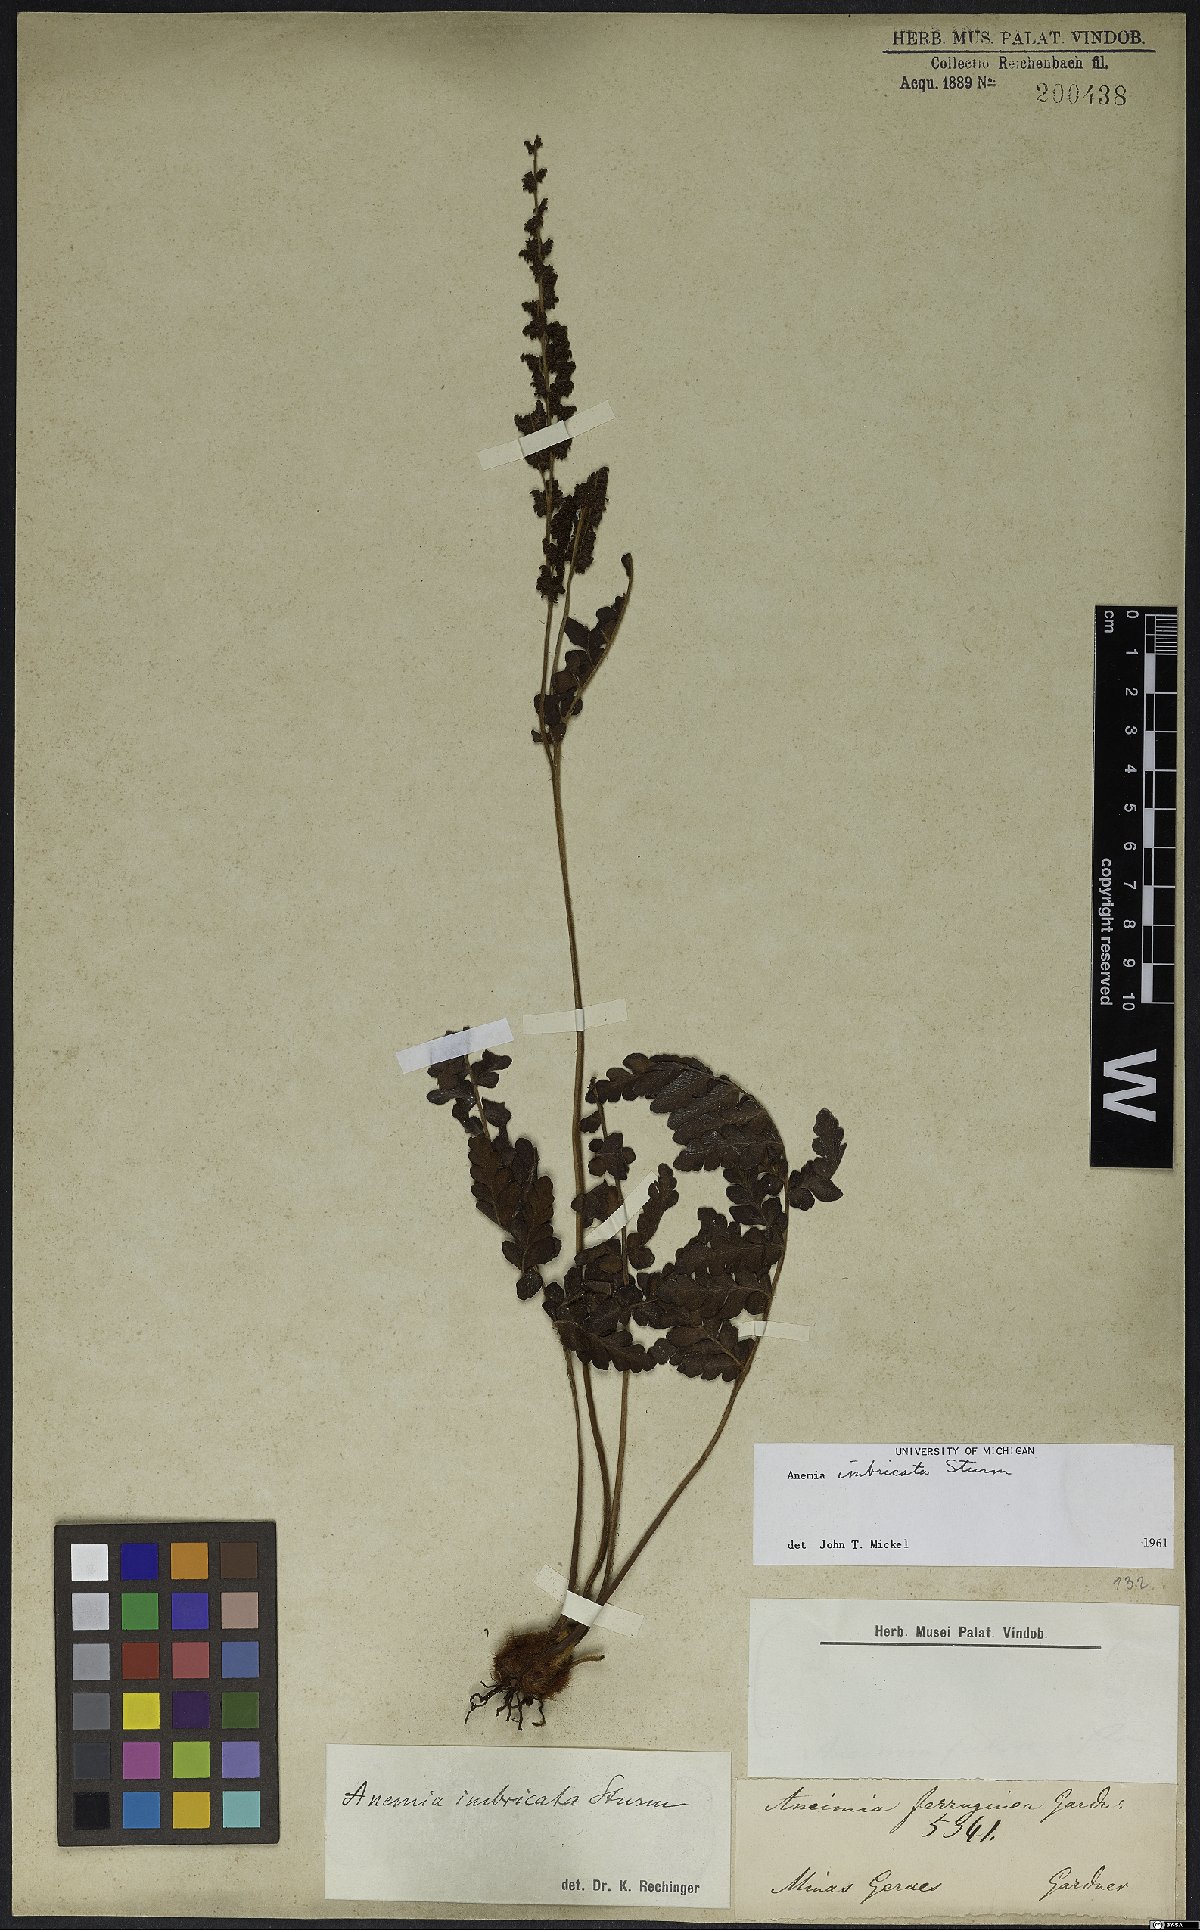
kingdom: Plantae
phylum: Tracheophyta
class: Polypodiopsida
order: Schizaeales
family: Anemiaceae
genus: Anemia
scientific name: Anemia imbricata
